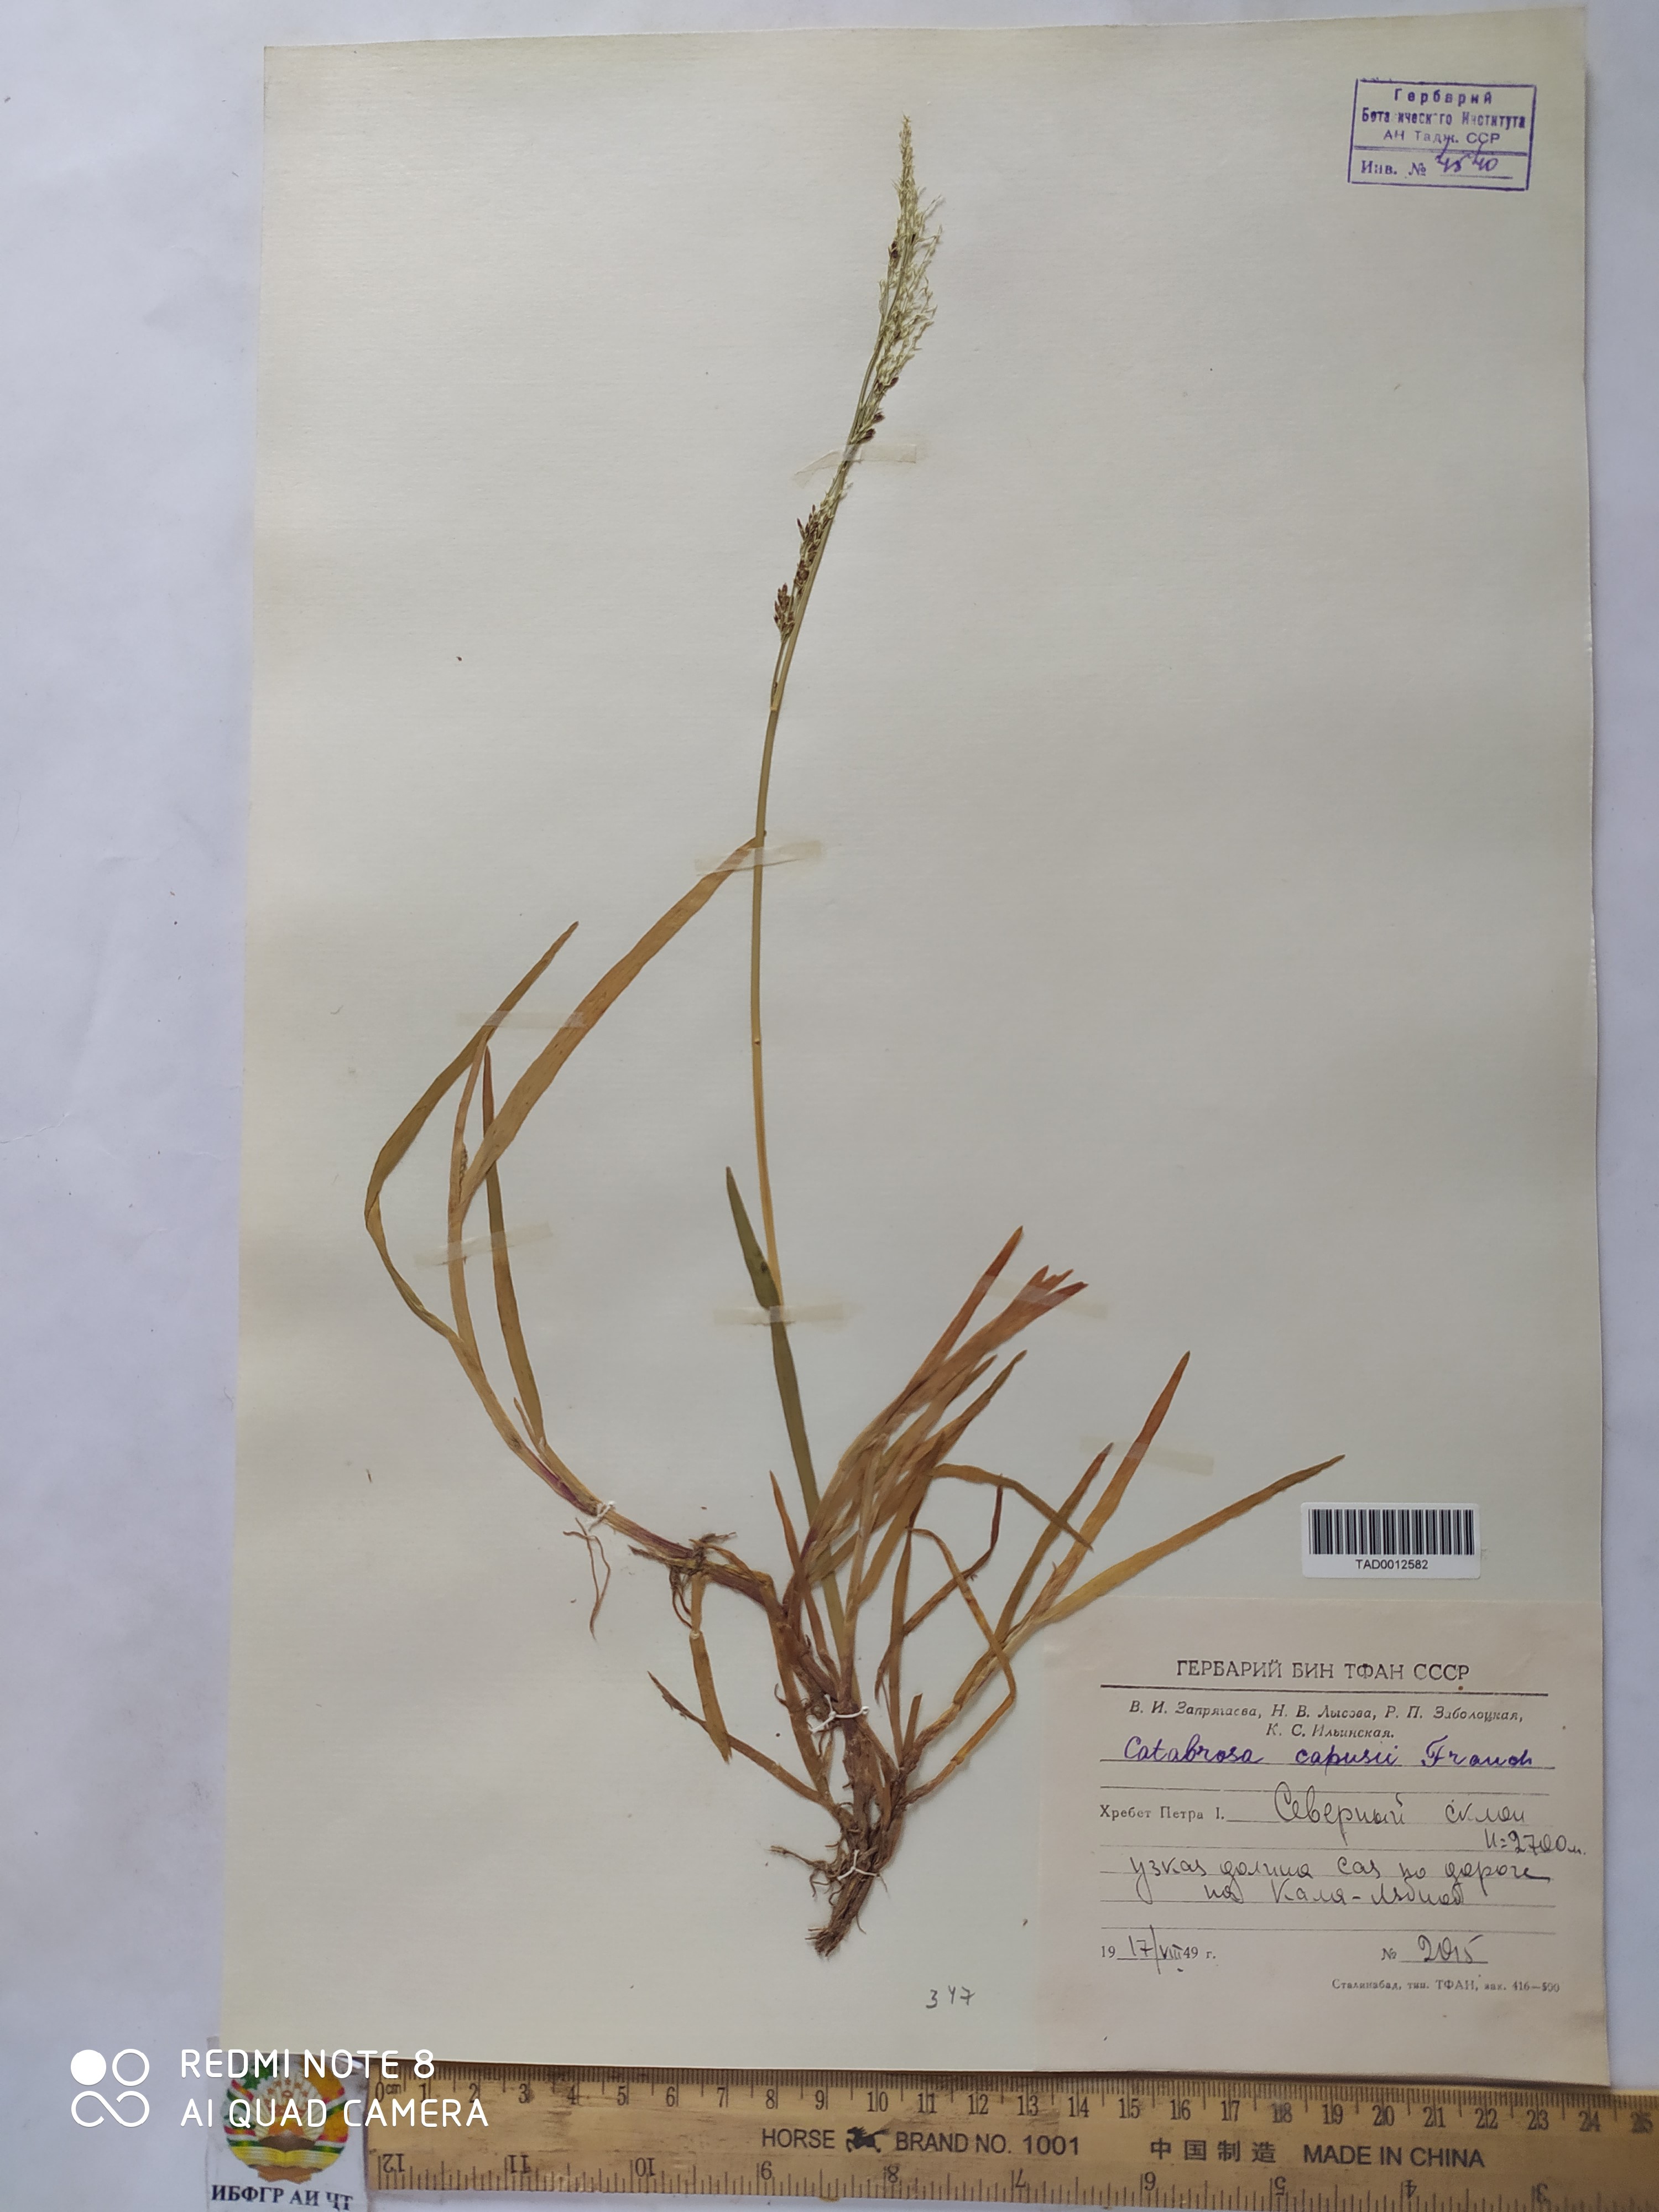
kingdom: Plantae
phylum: Tracheophyta
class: Liliopsida
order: Poales
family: Poaceae
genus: Catabrosa
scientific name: Catabrosa aquatica
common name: Whorl-grass
